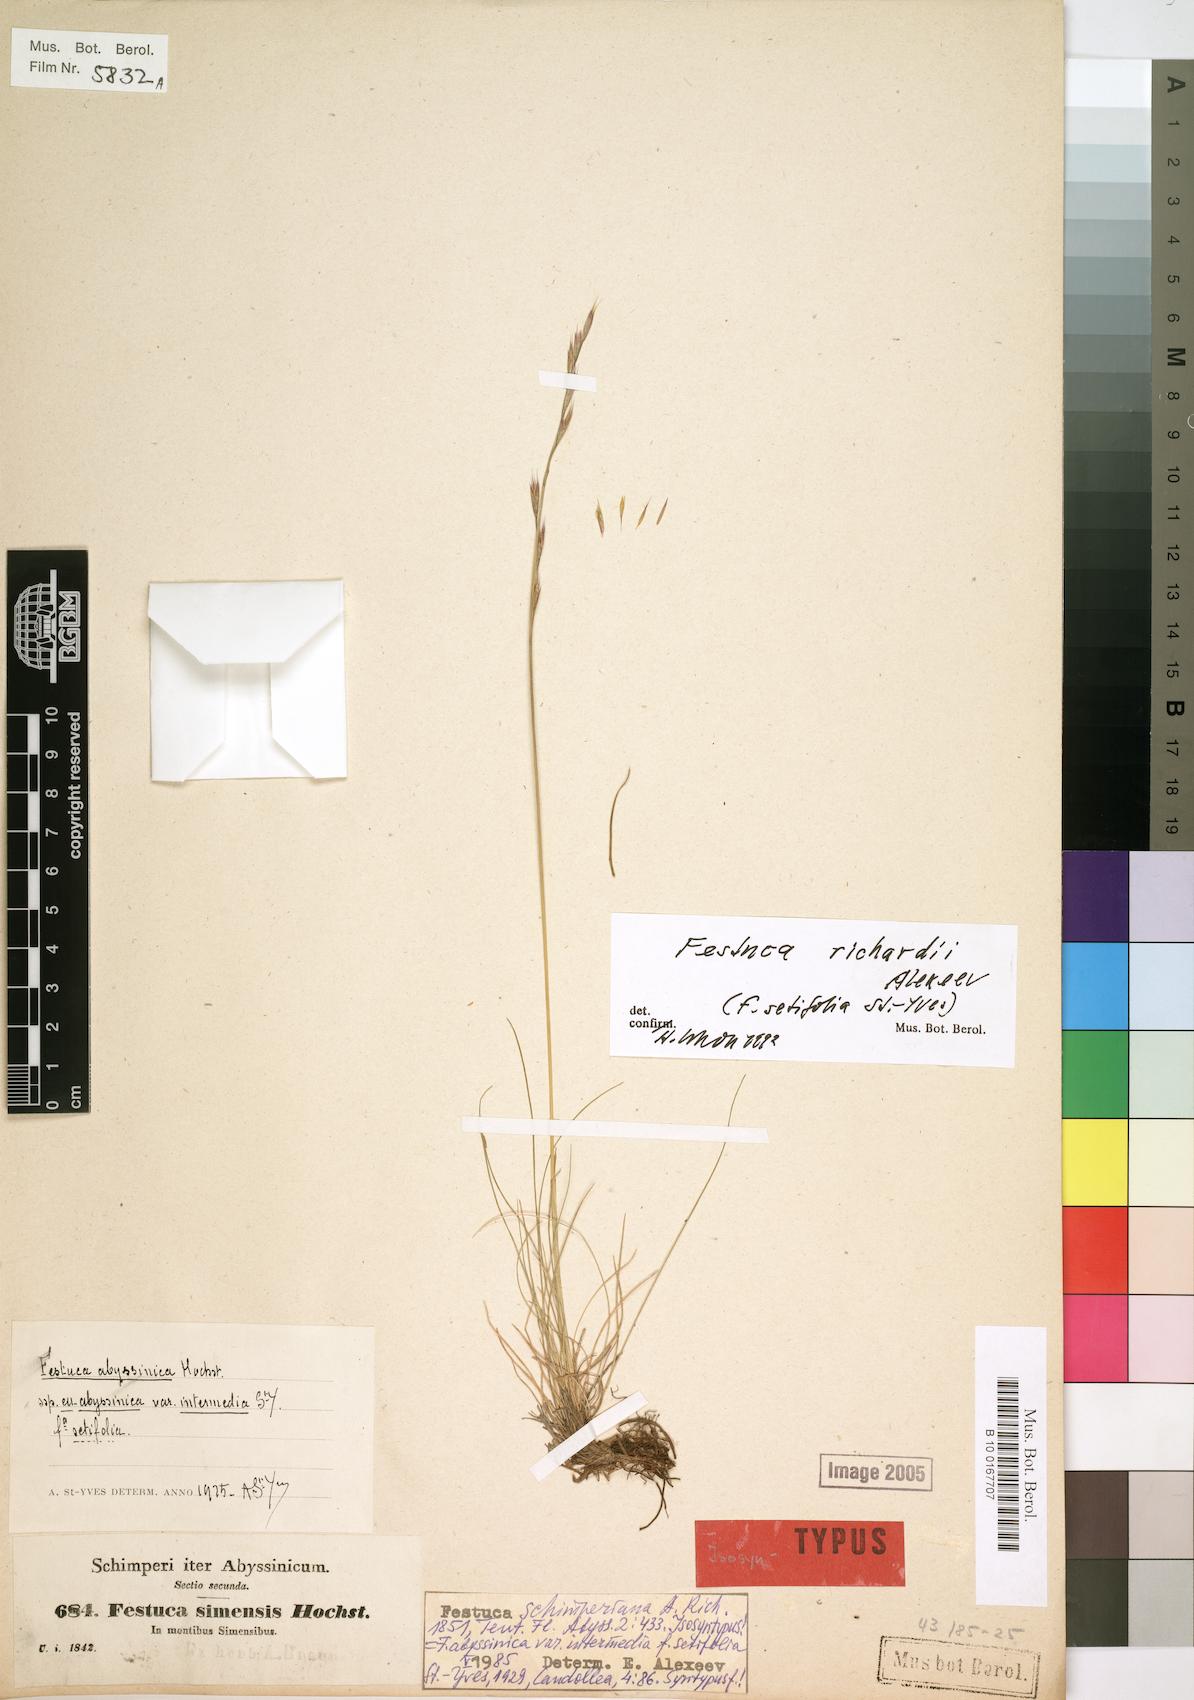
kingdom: Plantae
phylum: Tracheophyta
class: Liliopsida
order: Poales
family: Poaceae
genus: Festuca
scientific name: Festuca richardii
